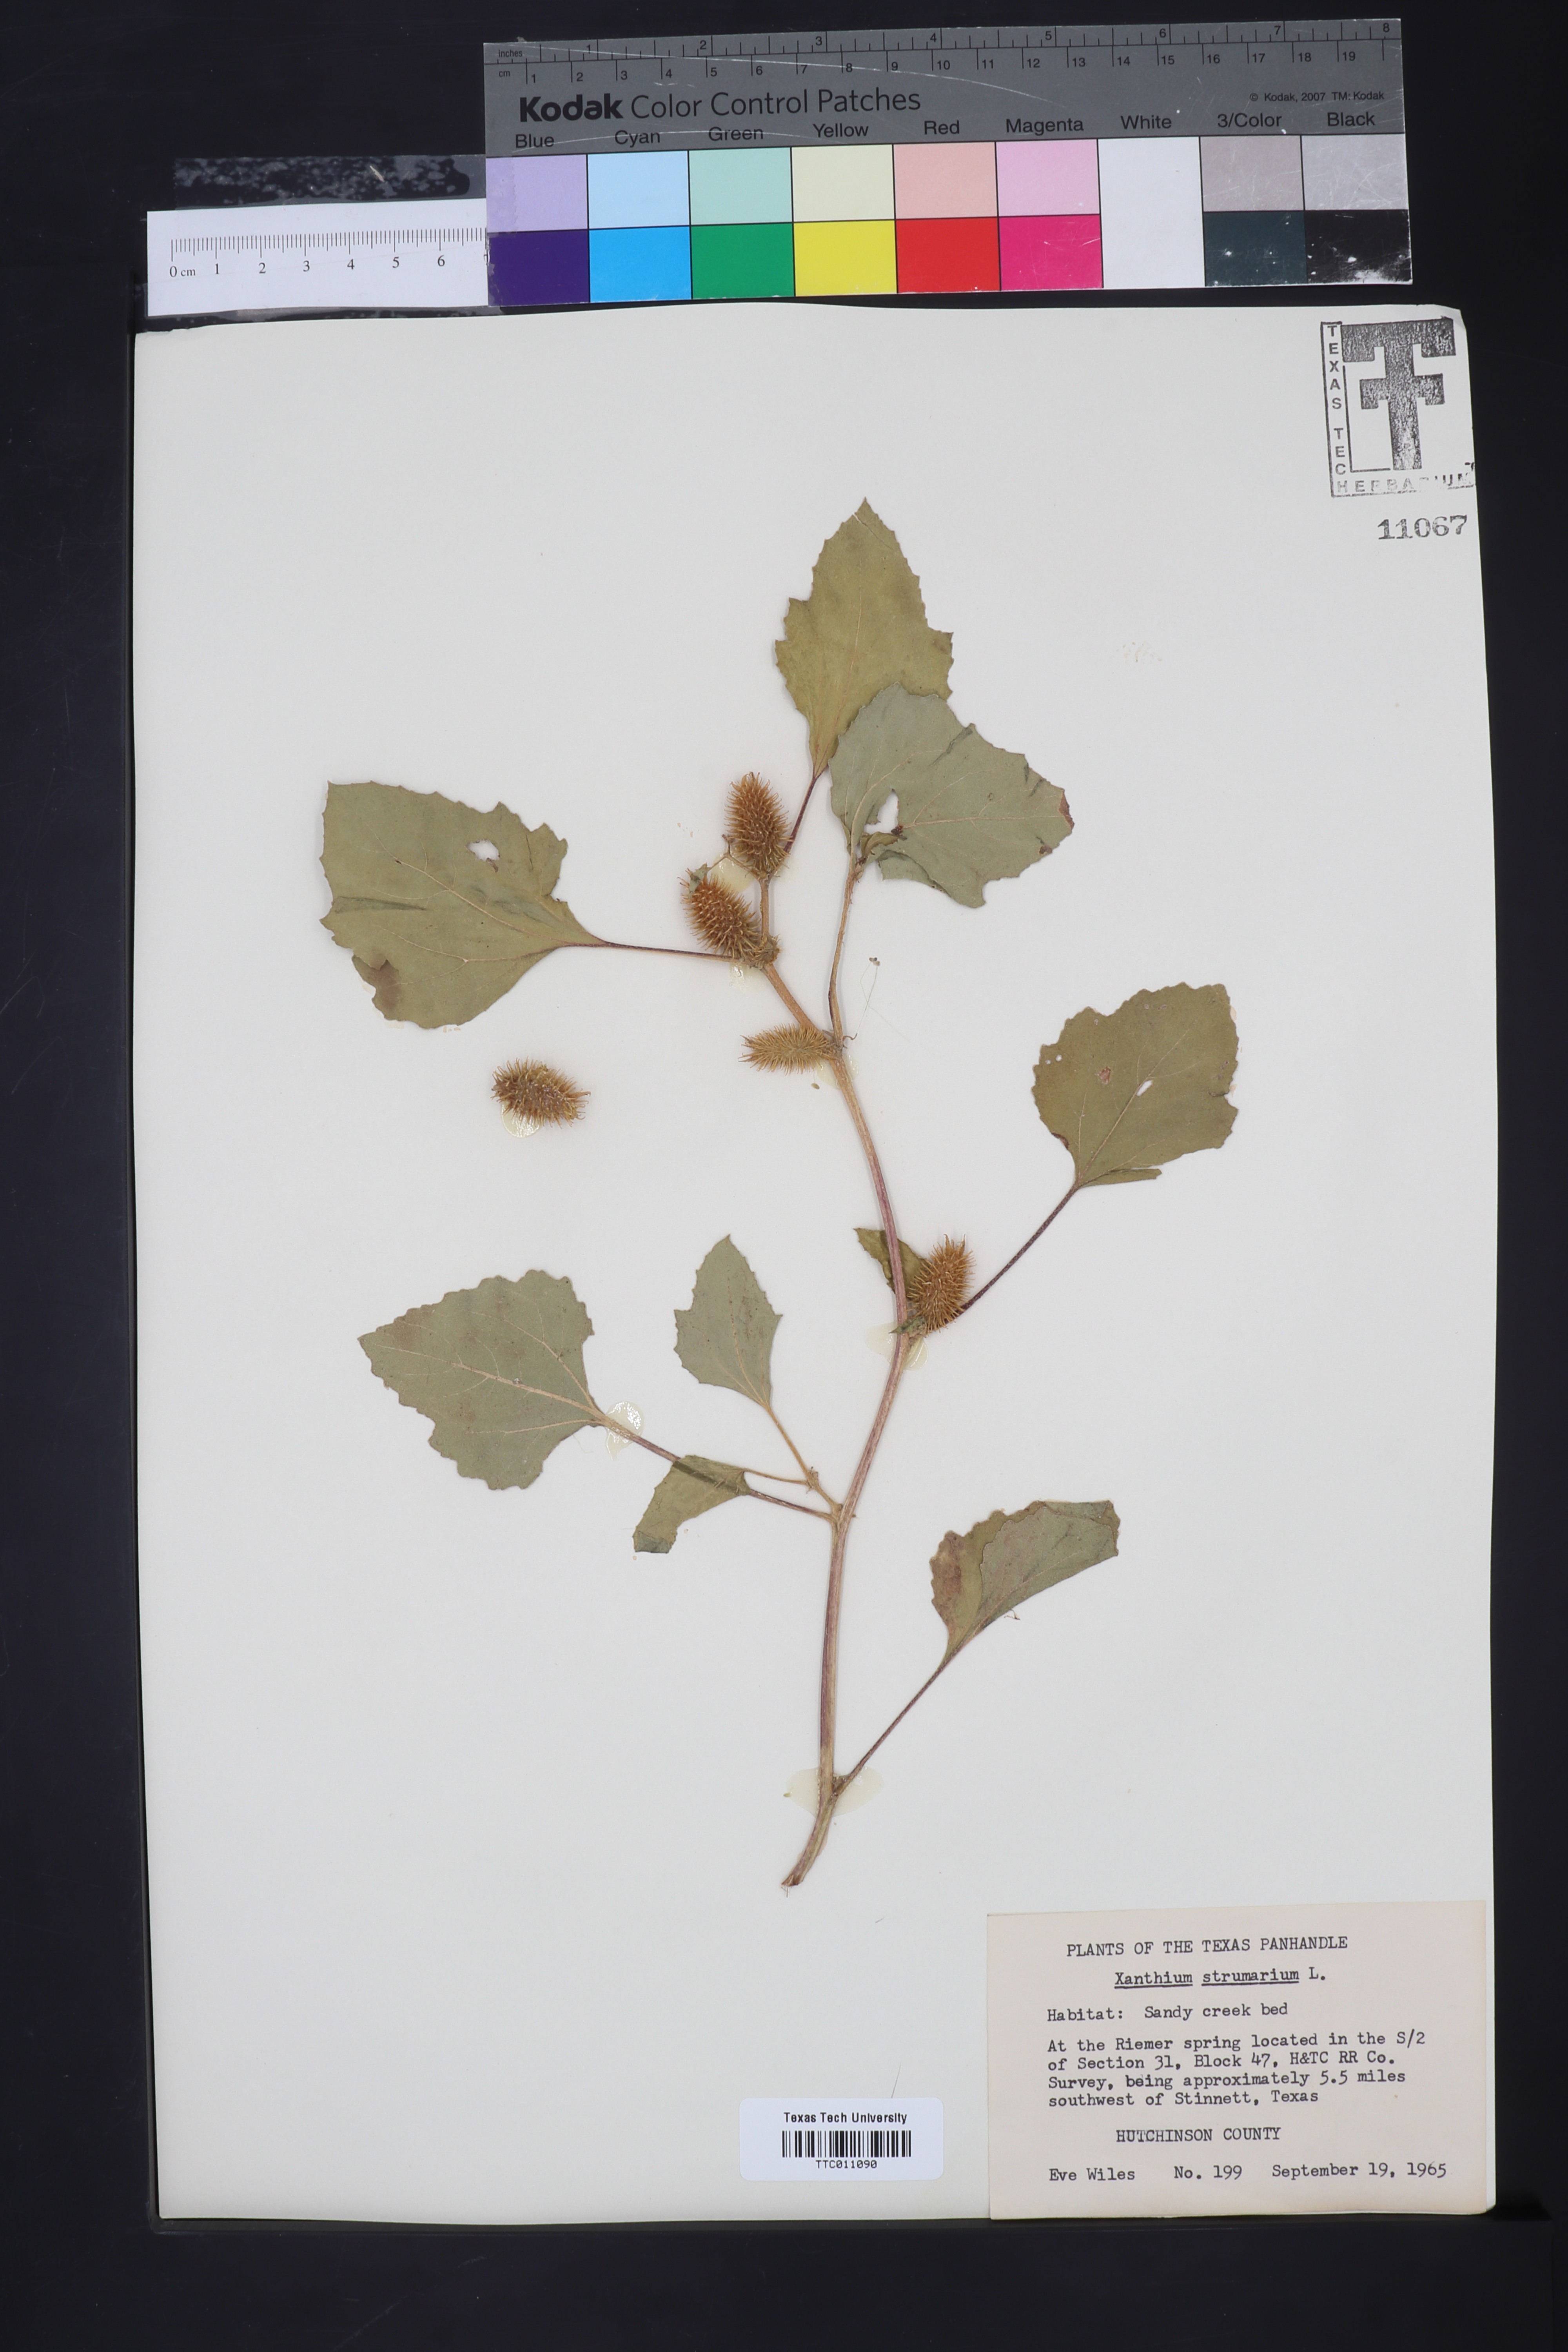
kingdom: Plantae
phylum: Tracheophyta
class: Magnoliopsida
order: Asterales
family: Asteraceae
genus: Xanthium
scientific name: Xanthium strumarium
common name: Rough cocklebur
